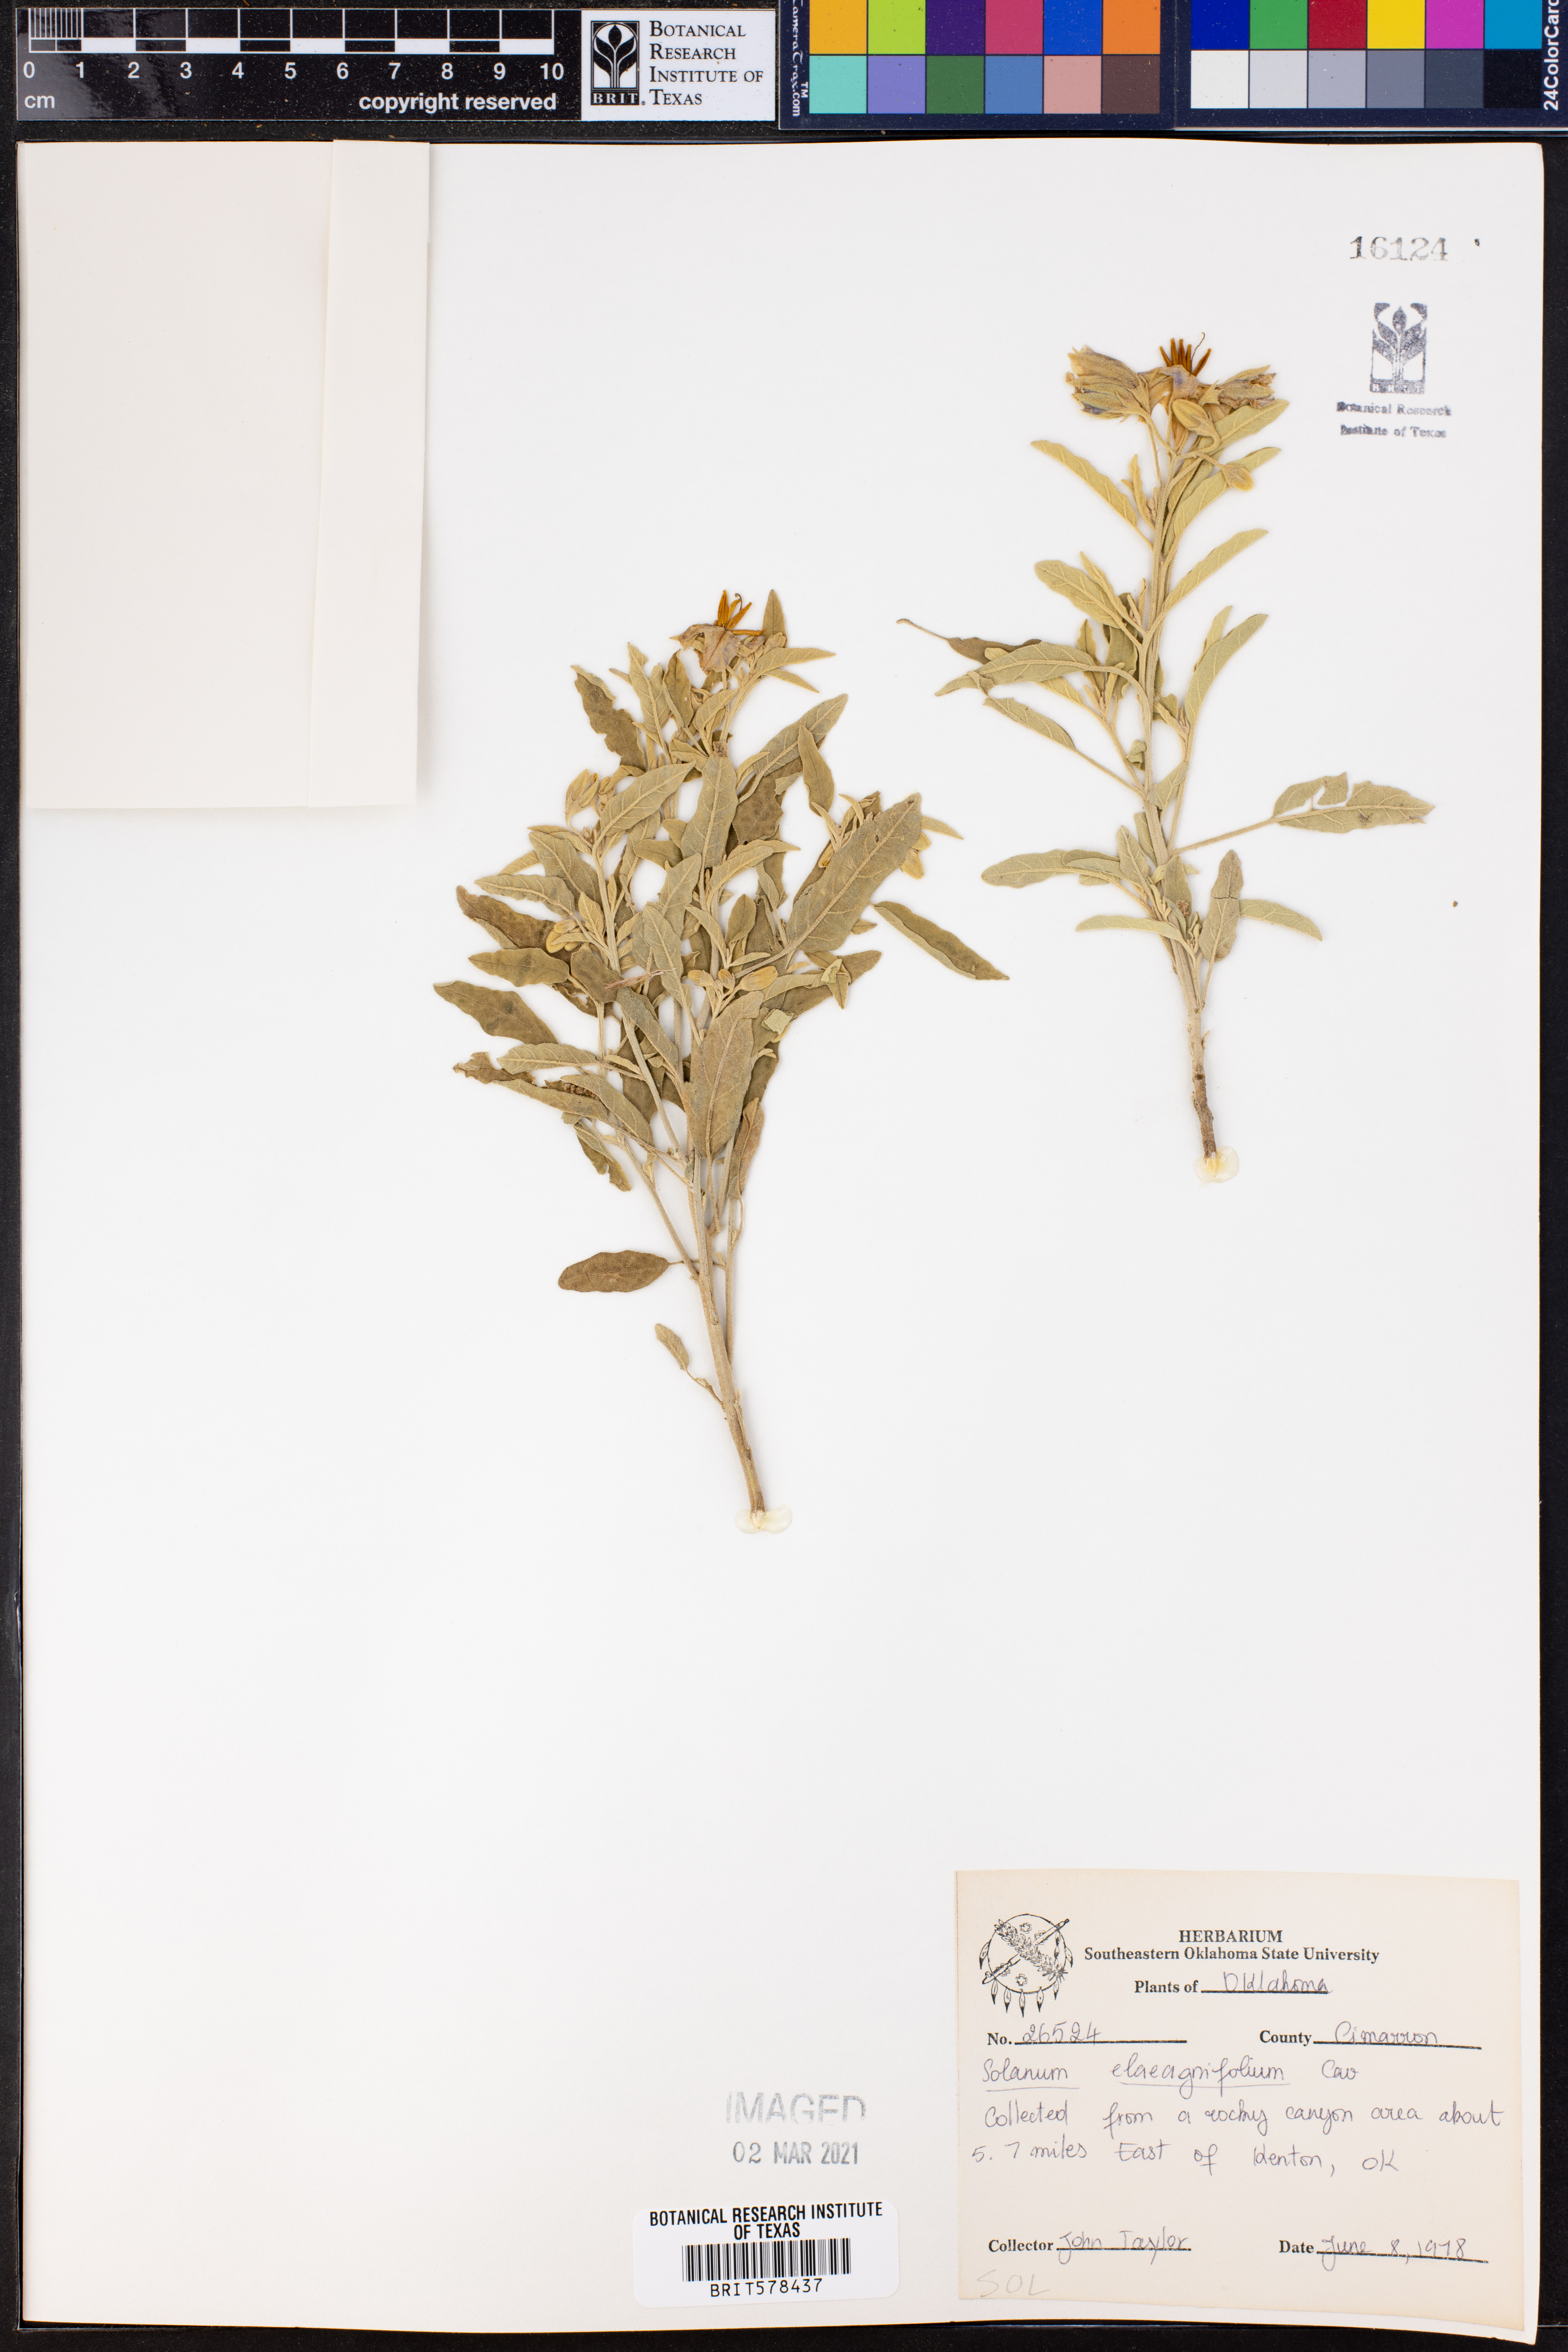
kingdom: Plantae
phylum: Tracheophyta
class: Magnoliopsida
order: Solanales
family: Solanaceae
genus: Solanum
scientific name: Solanum elaeagnifolium
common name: Silverleaf nightshade
